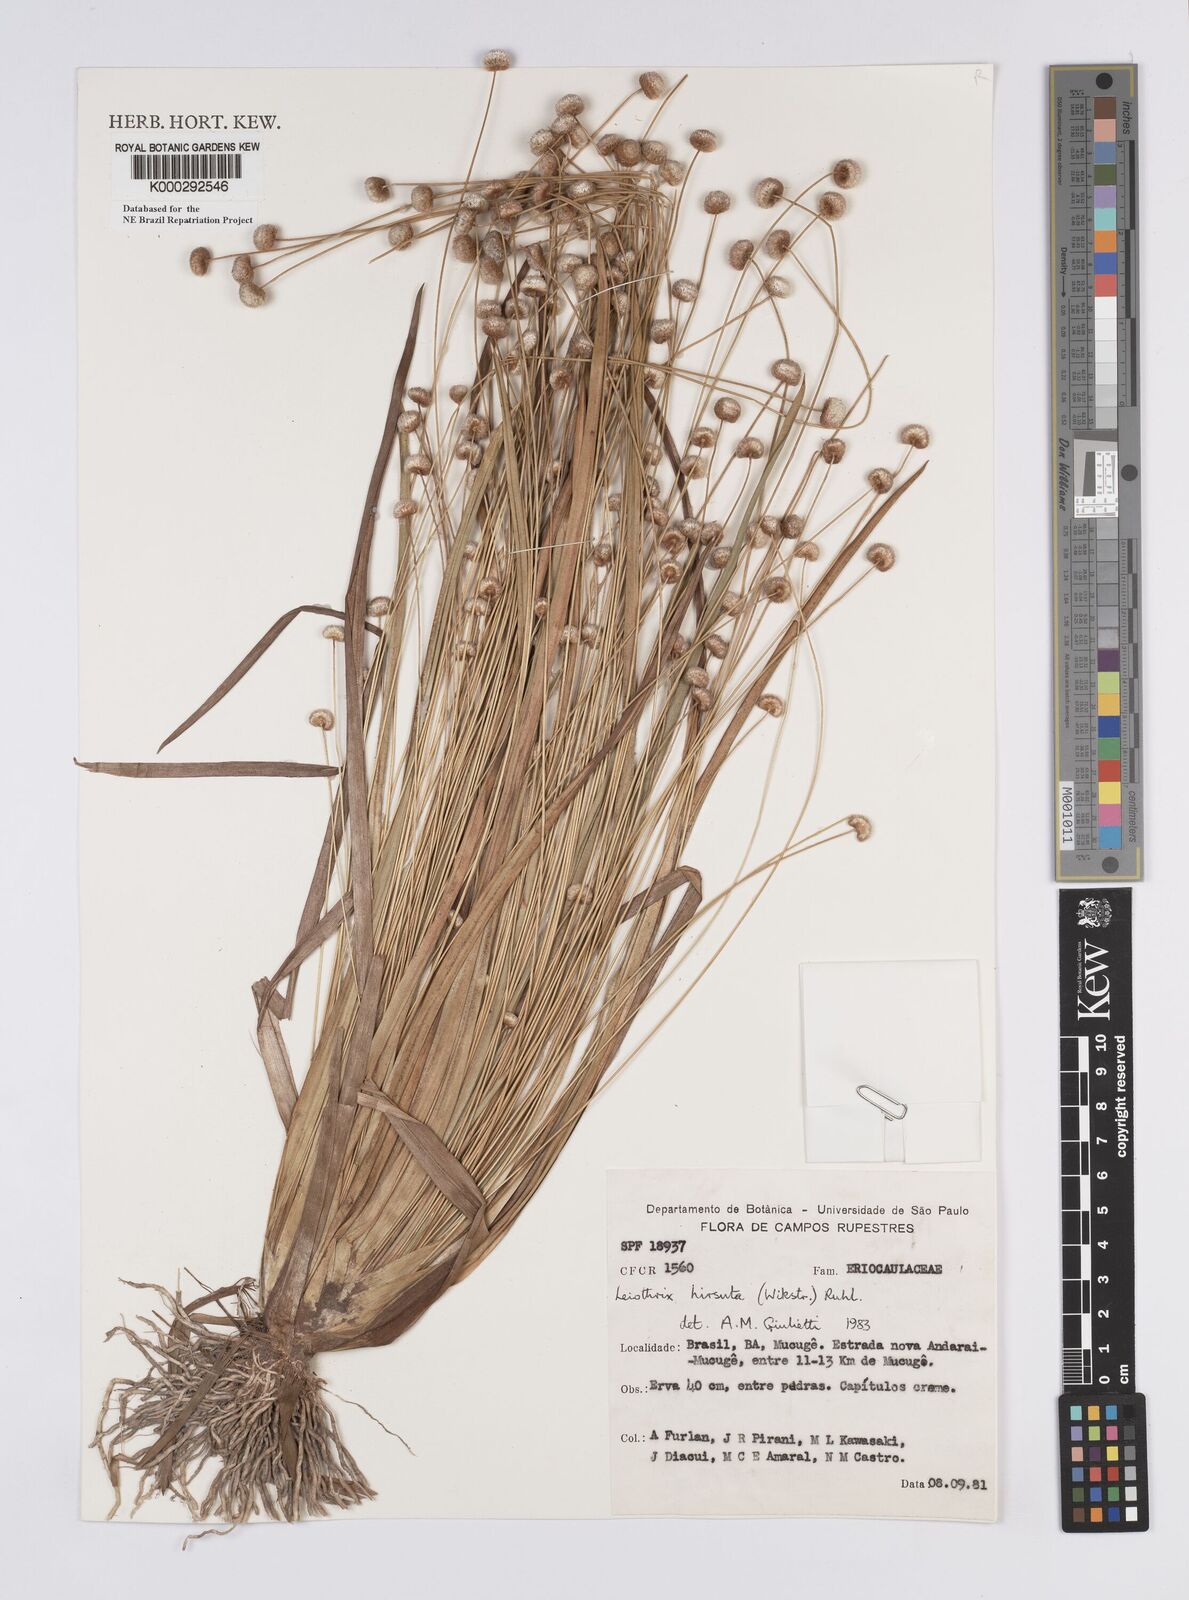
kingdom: Plantae
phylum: Tracheophyta
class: Liliopsida
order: Poales
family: Eriocaulaceae
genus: Leiothrix
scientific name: Leiothrix hirsuta
